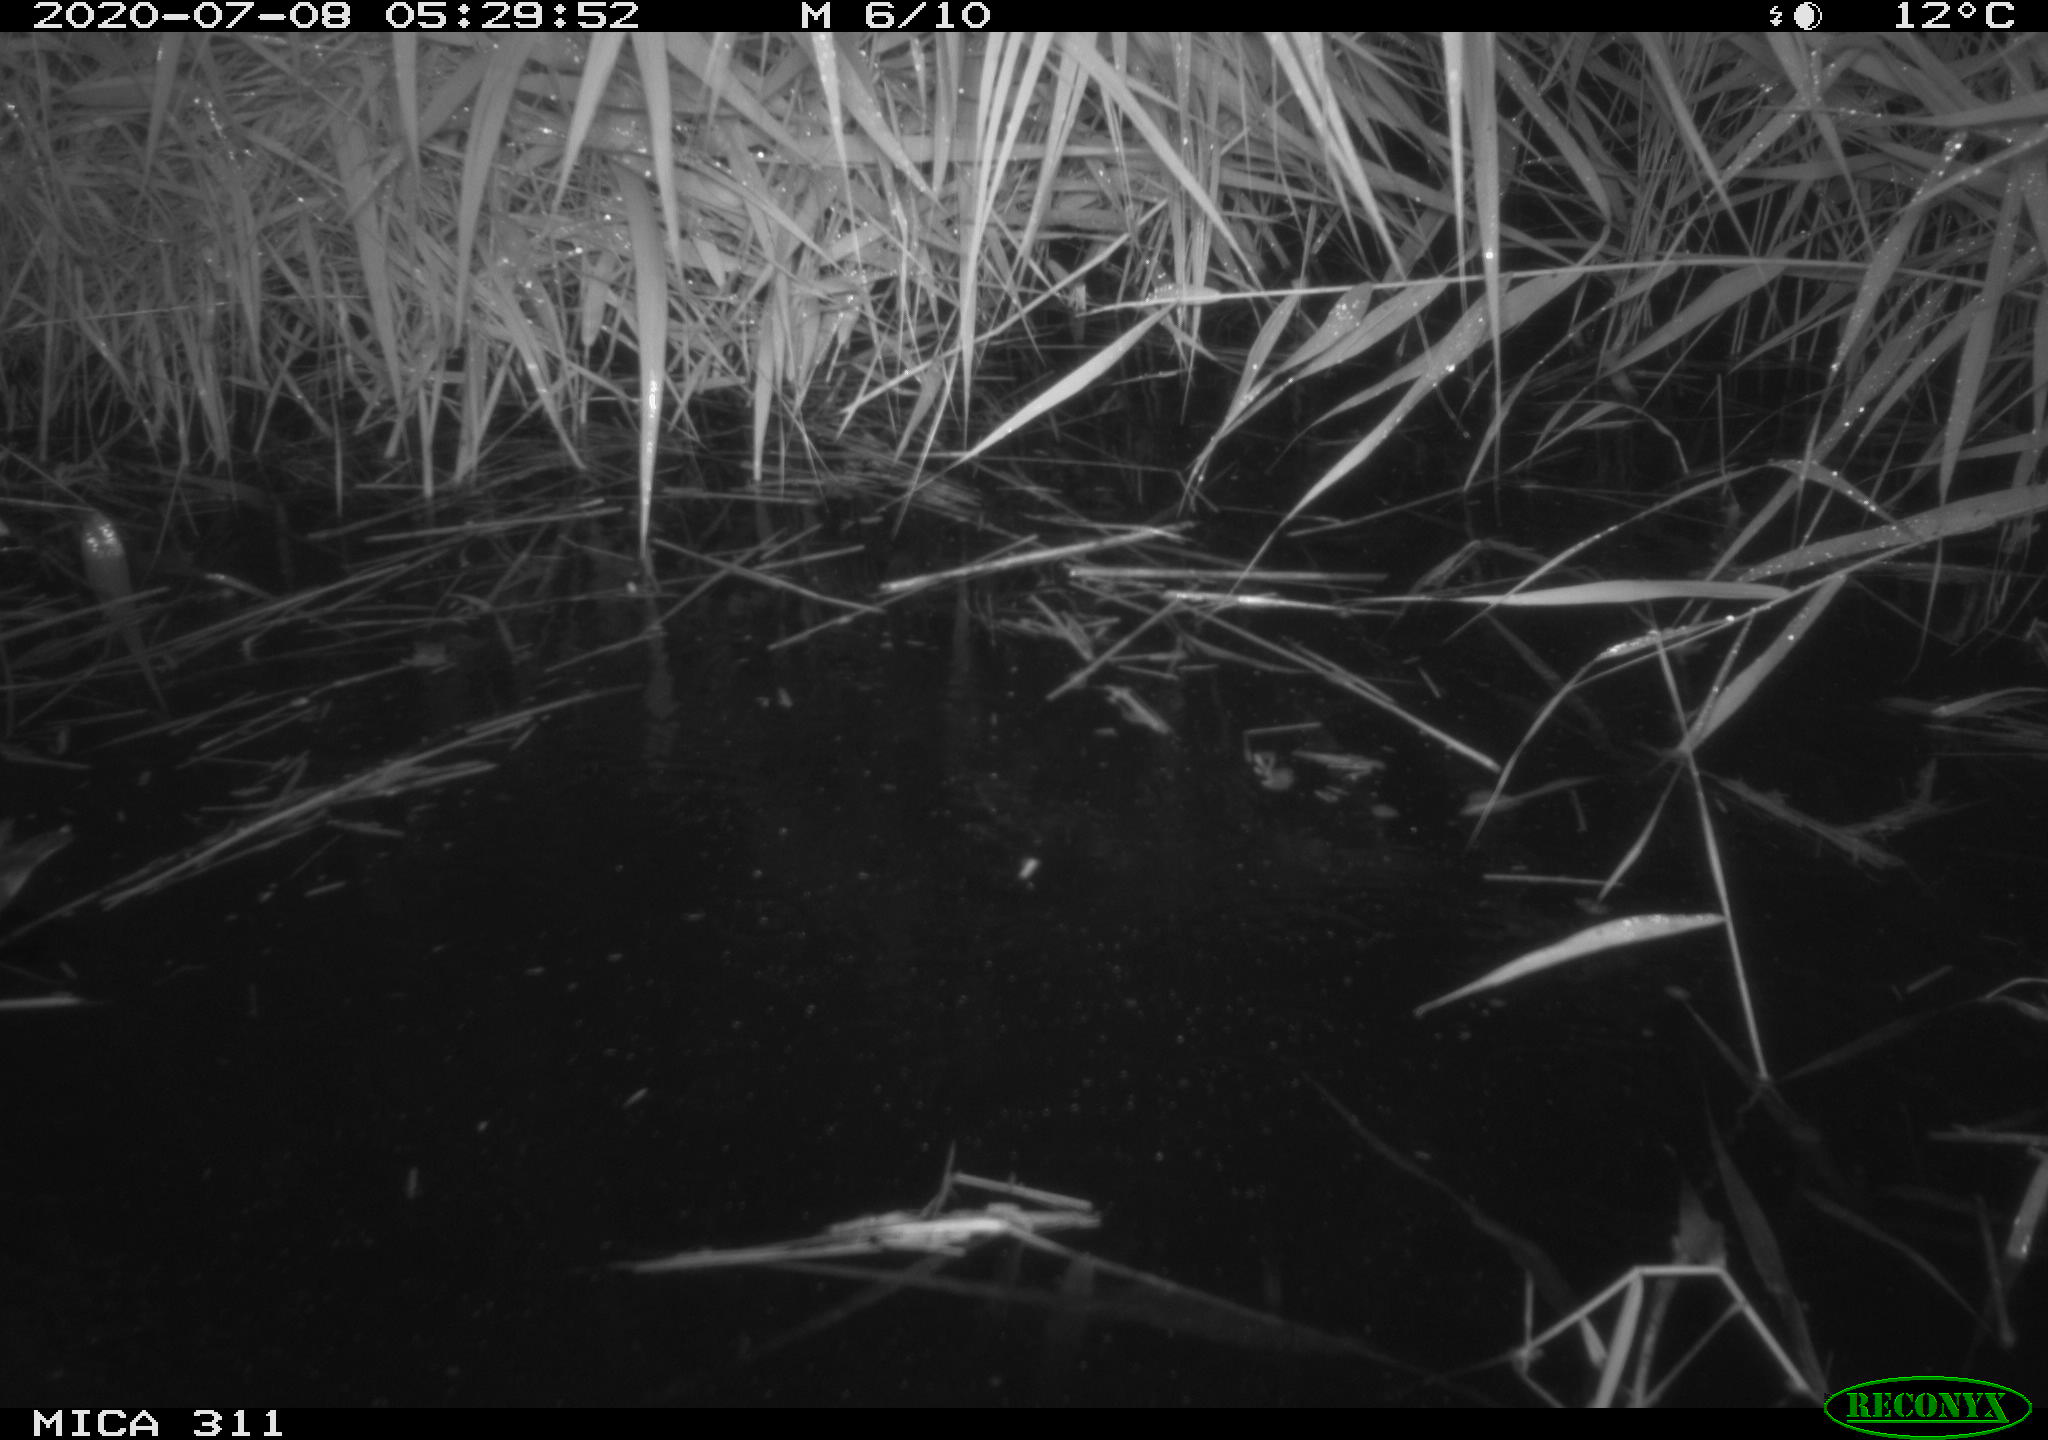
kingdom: Animalia
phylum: Chordata
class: Aves
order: Anseriformes
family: Anatidae
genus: Anas
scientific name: Anas platyrhynchos
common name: Mallard
